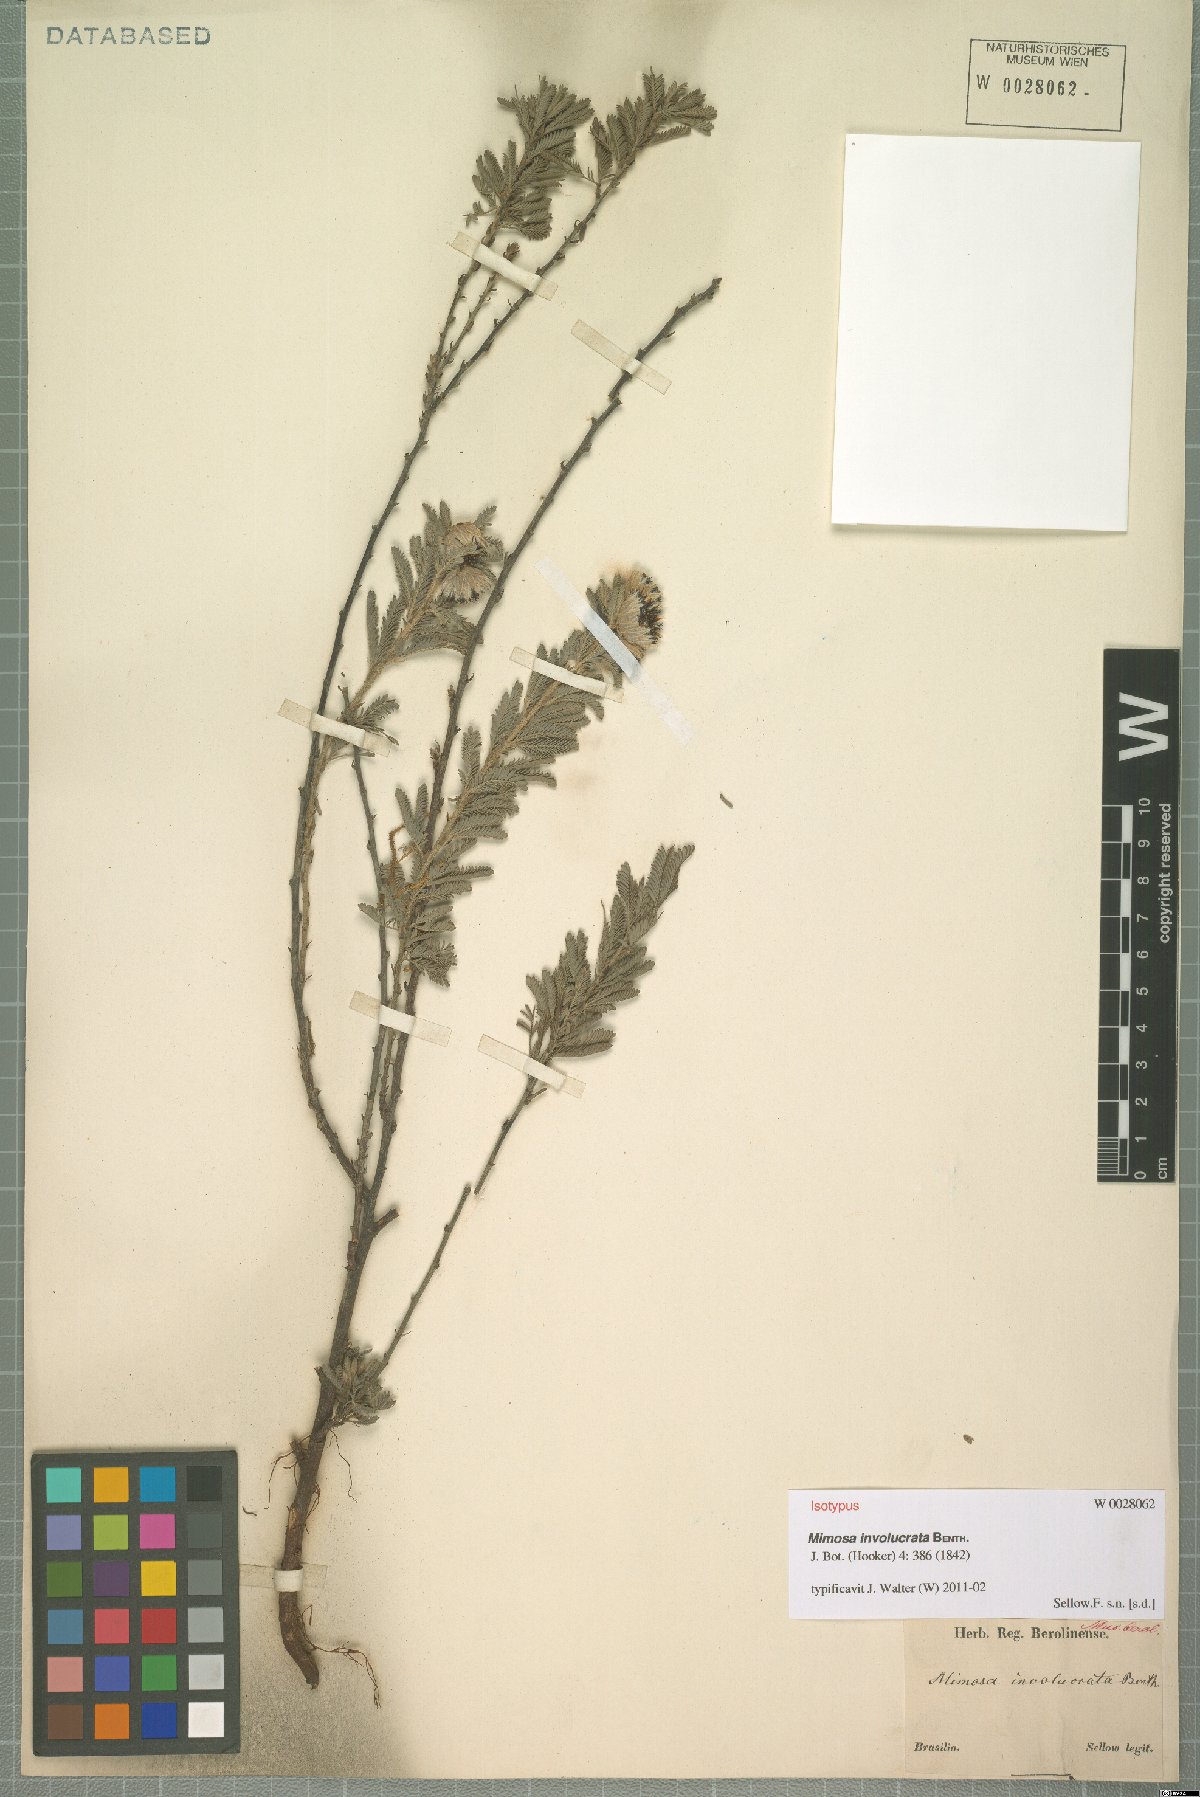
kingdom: Plantae
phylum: Tracheophyta
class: Magnoliopsida
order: Fabales
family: Fabaceae
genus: Mimosa
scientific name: Mimosa involucrata
